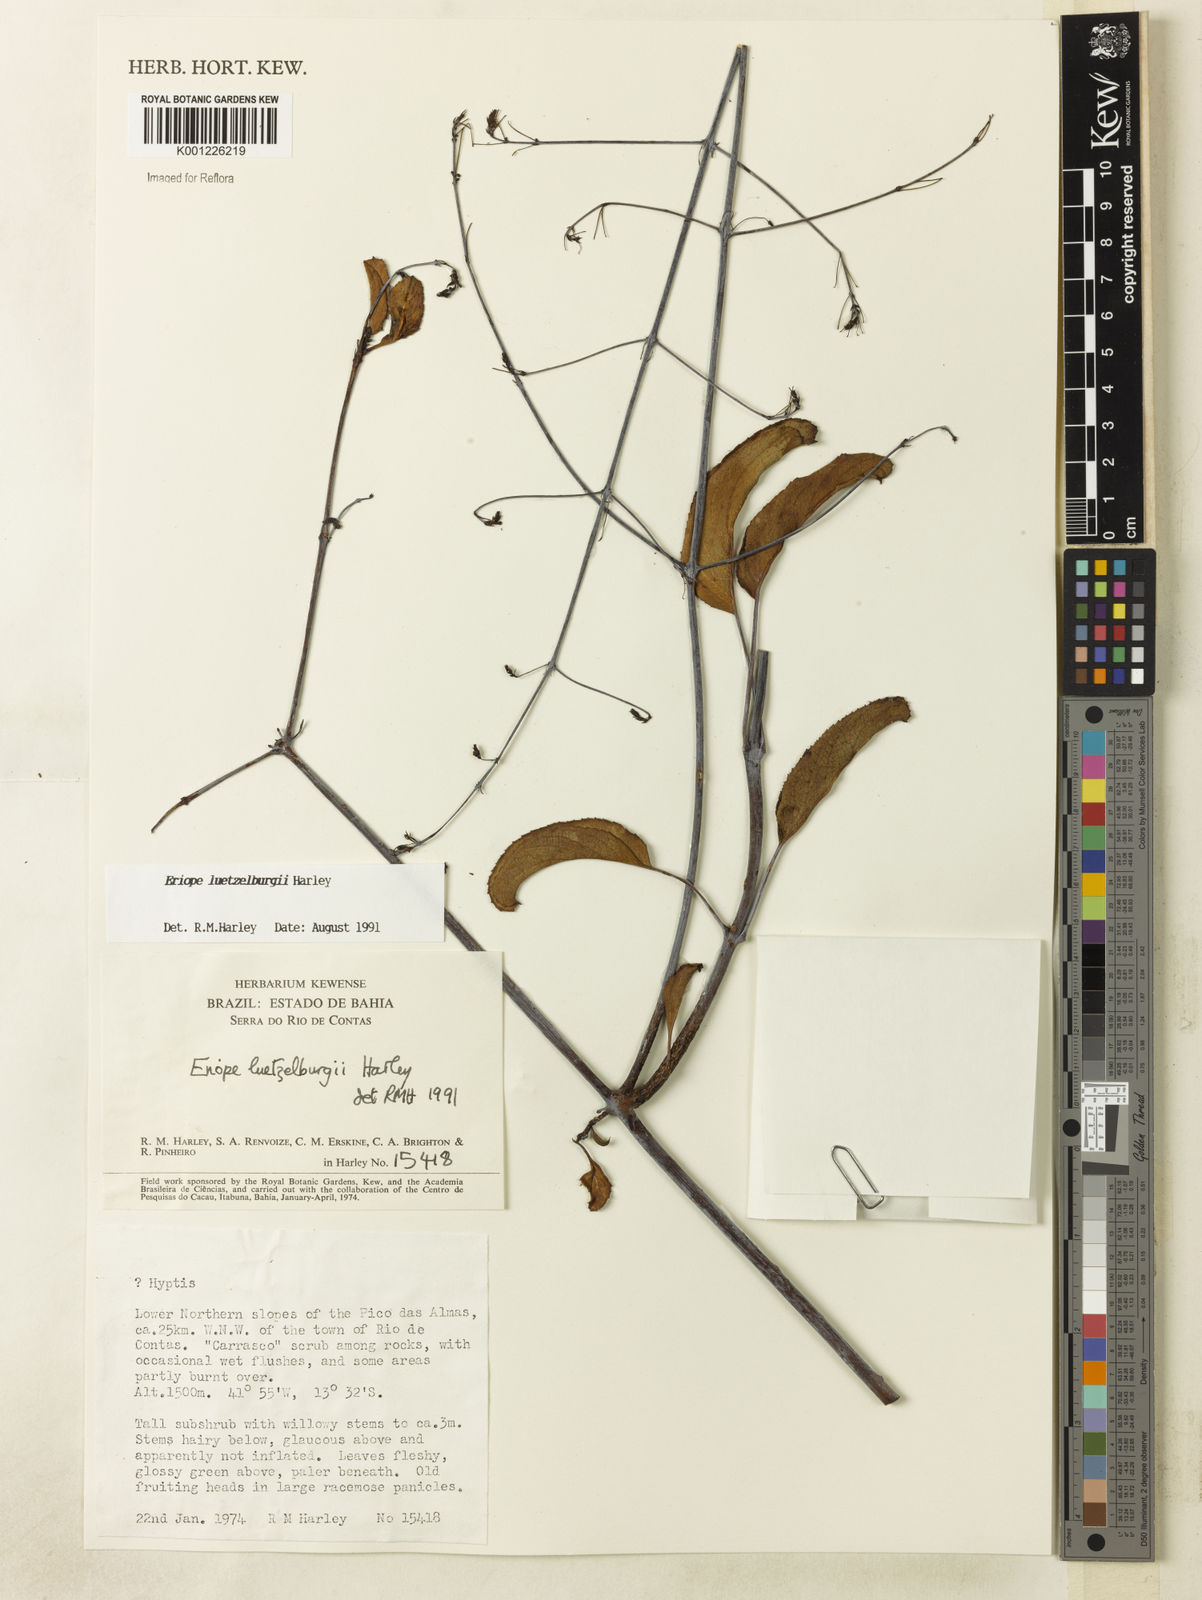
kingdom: Plantae
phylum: Tracheophyta
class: Magnoliopsida
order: Lamiales
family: Lamiaceae
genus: Eriope
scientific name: Eriope luetzelburgii
